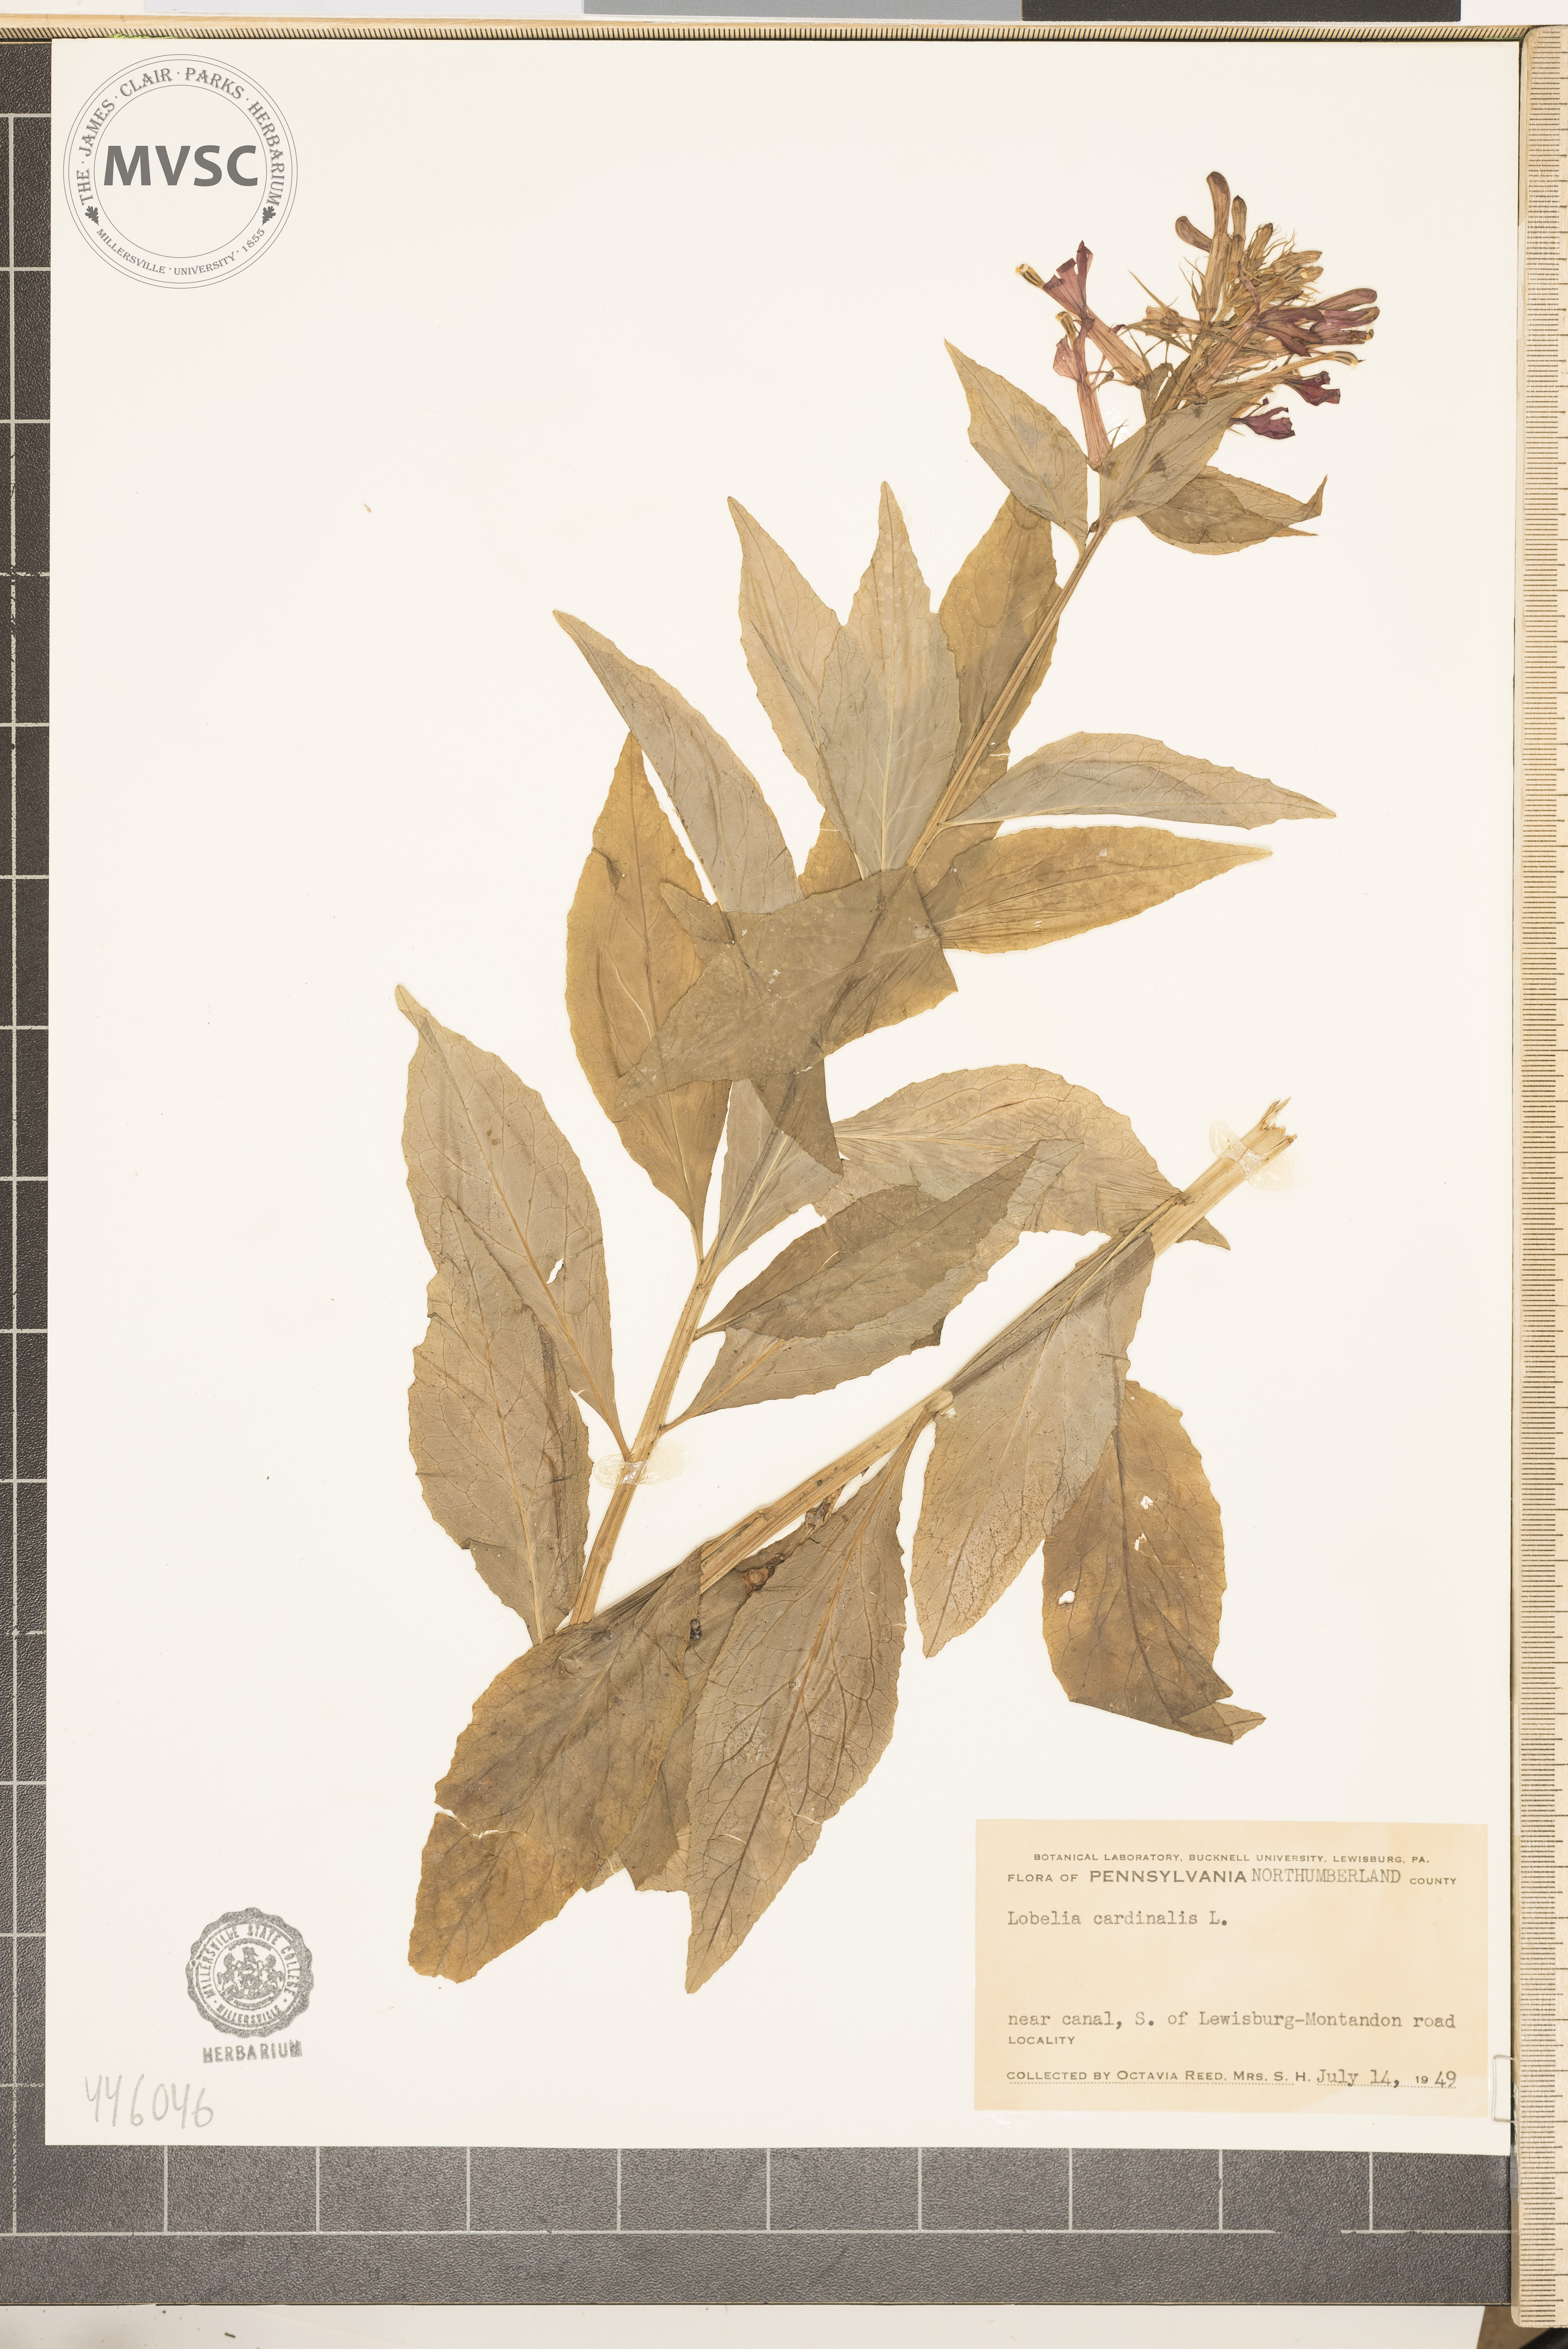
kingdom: Plantae
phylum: Tracheophyta
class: Magnoliopsida
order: Asterales
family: Campanulaceae
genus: Lobelia
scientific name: Lobelia cardinalis
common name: Cardinal flower
